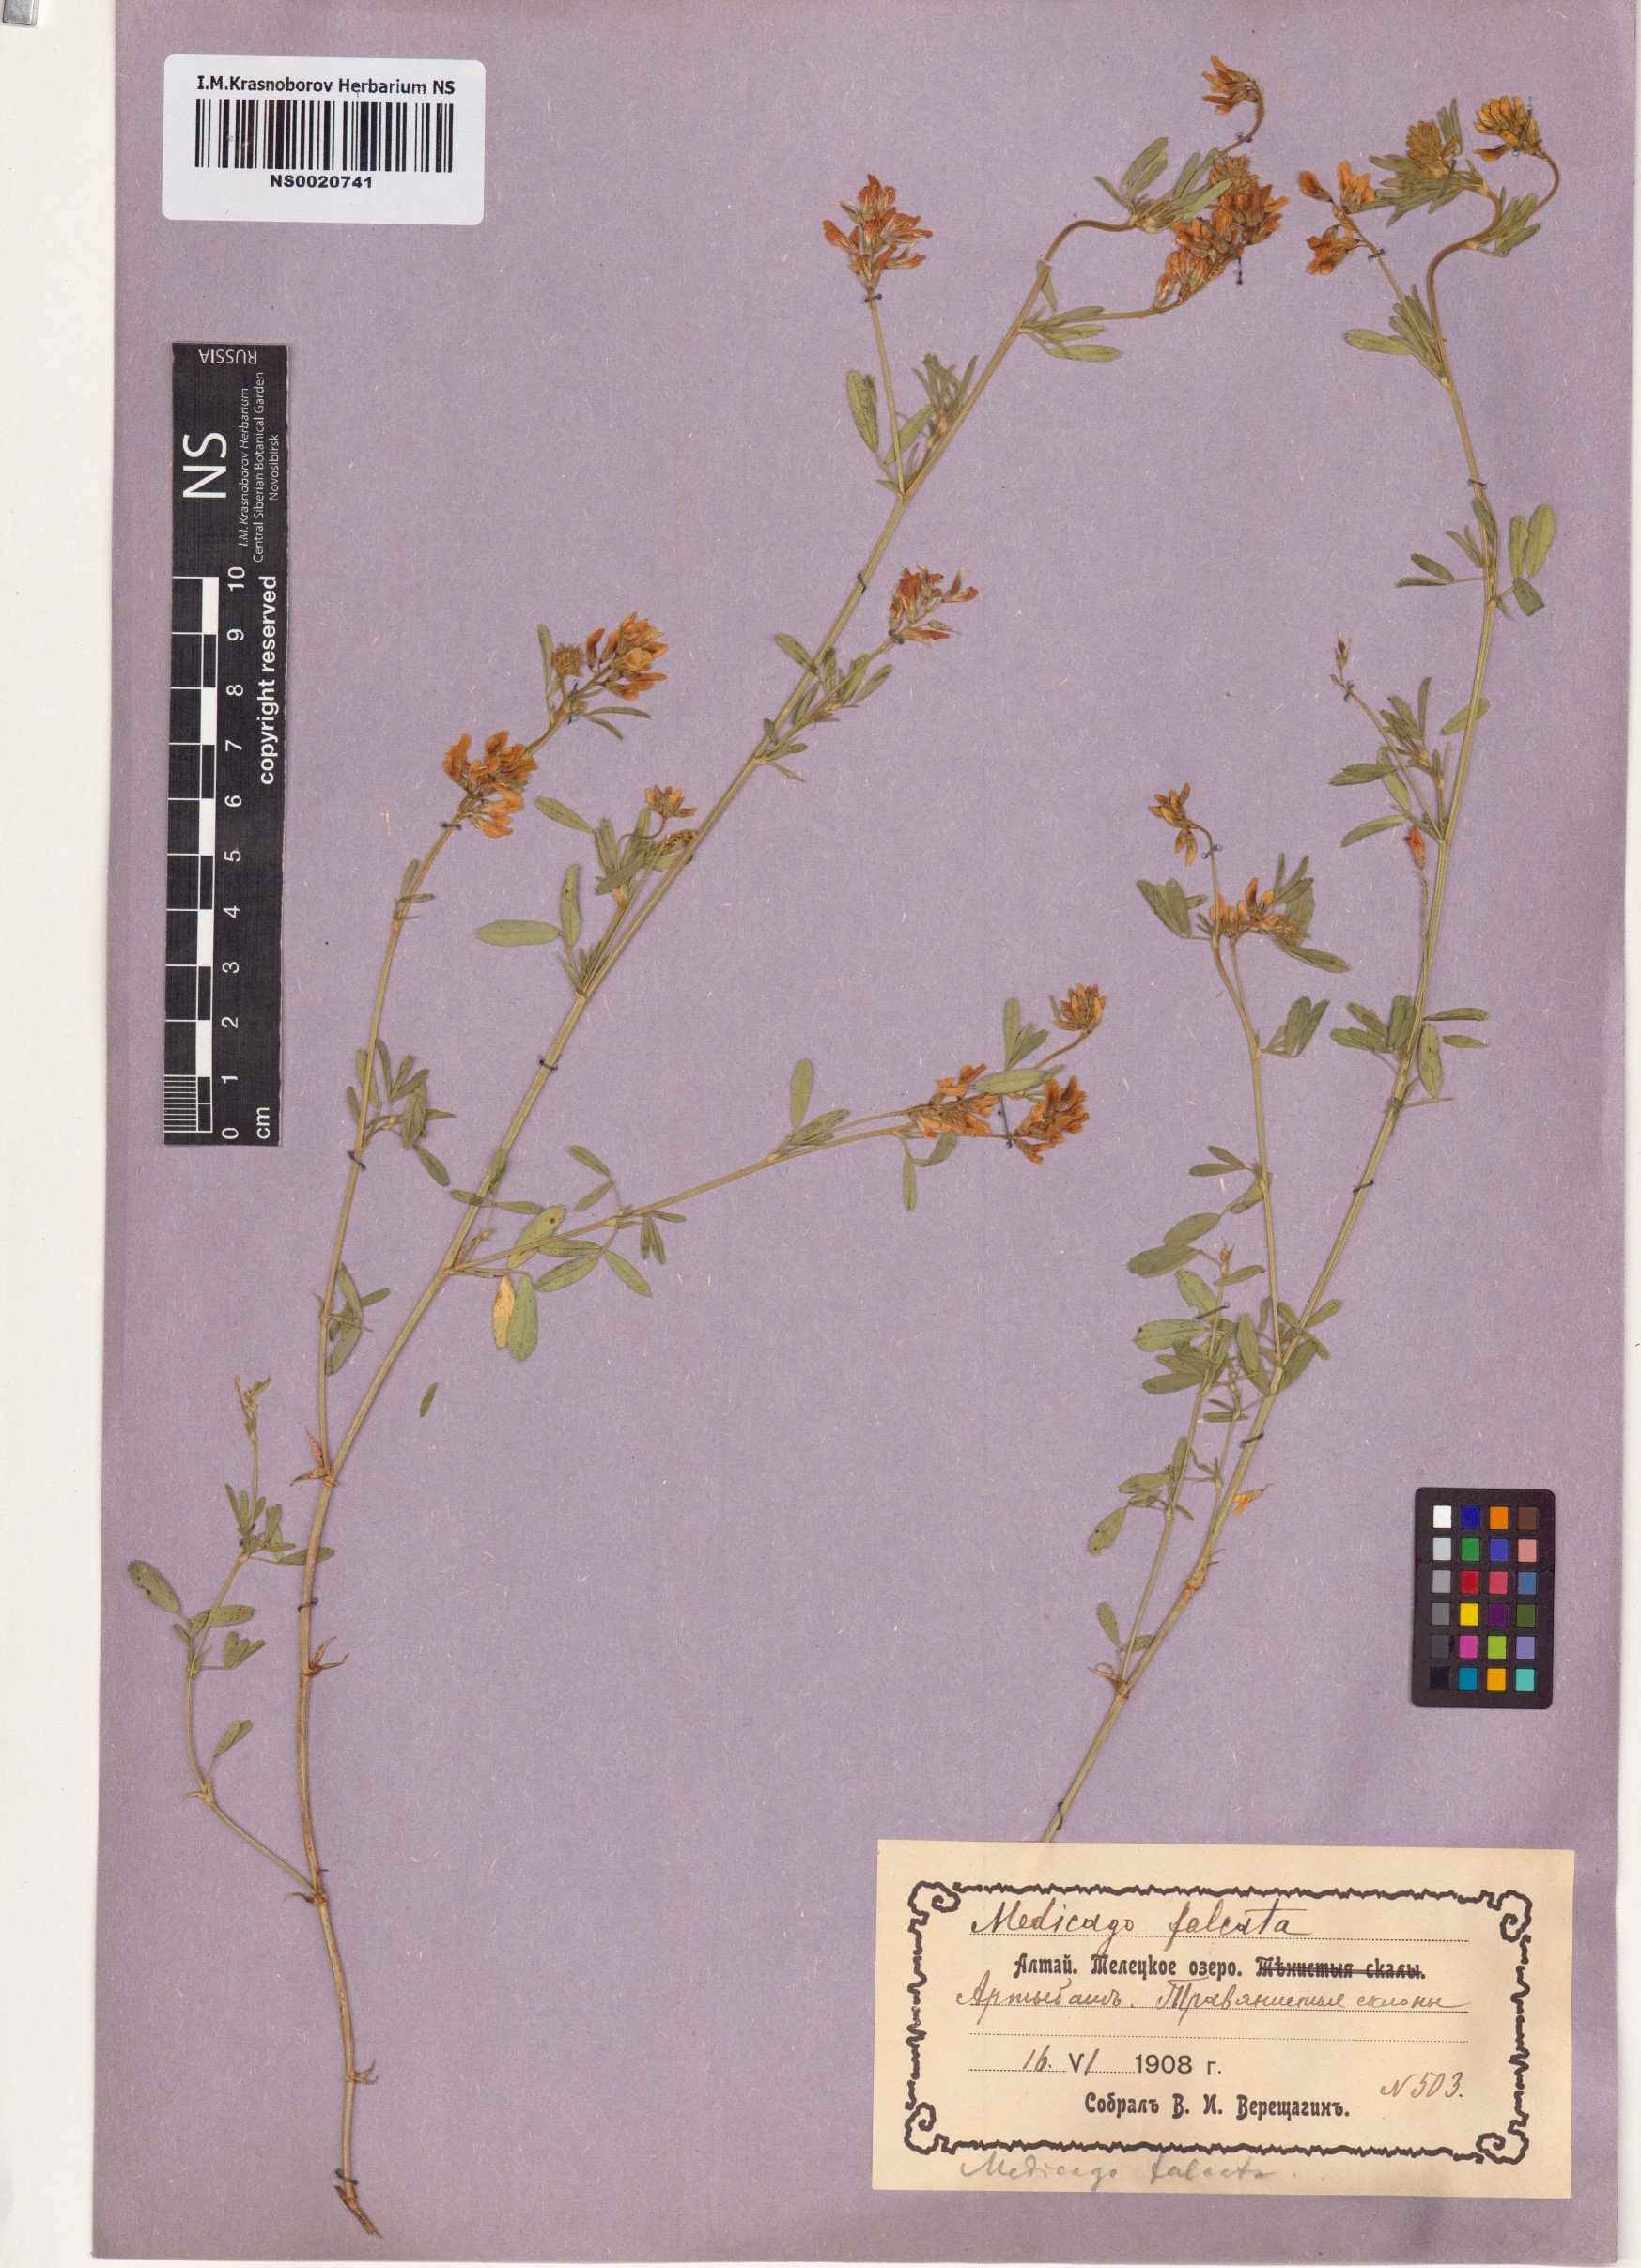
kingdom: Plantae
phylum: Tracheophyta
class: Magnoliopsida
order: Fabales
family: Fabaceae
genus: Medicago
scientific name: Medicago falcata
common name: Sickle medick
